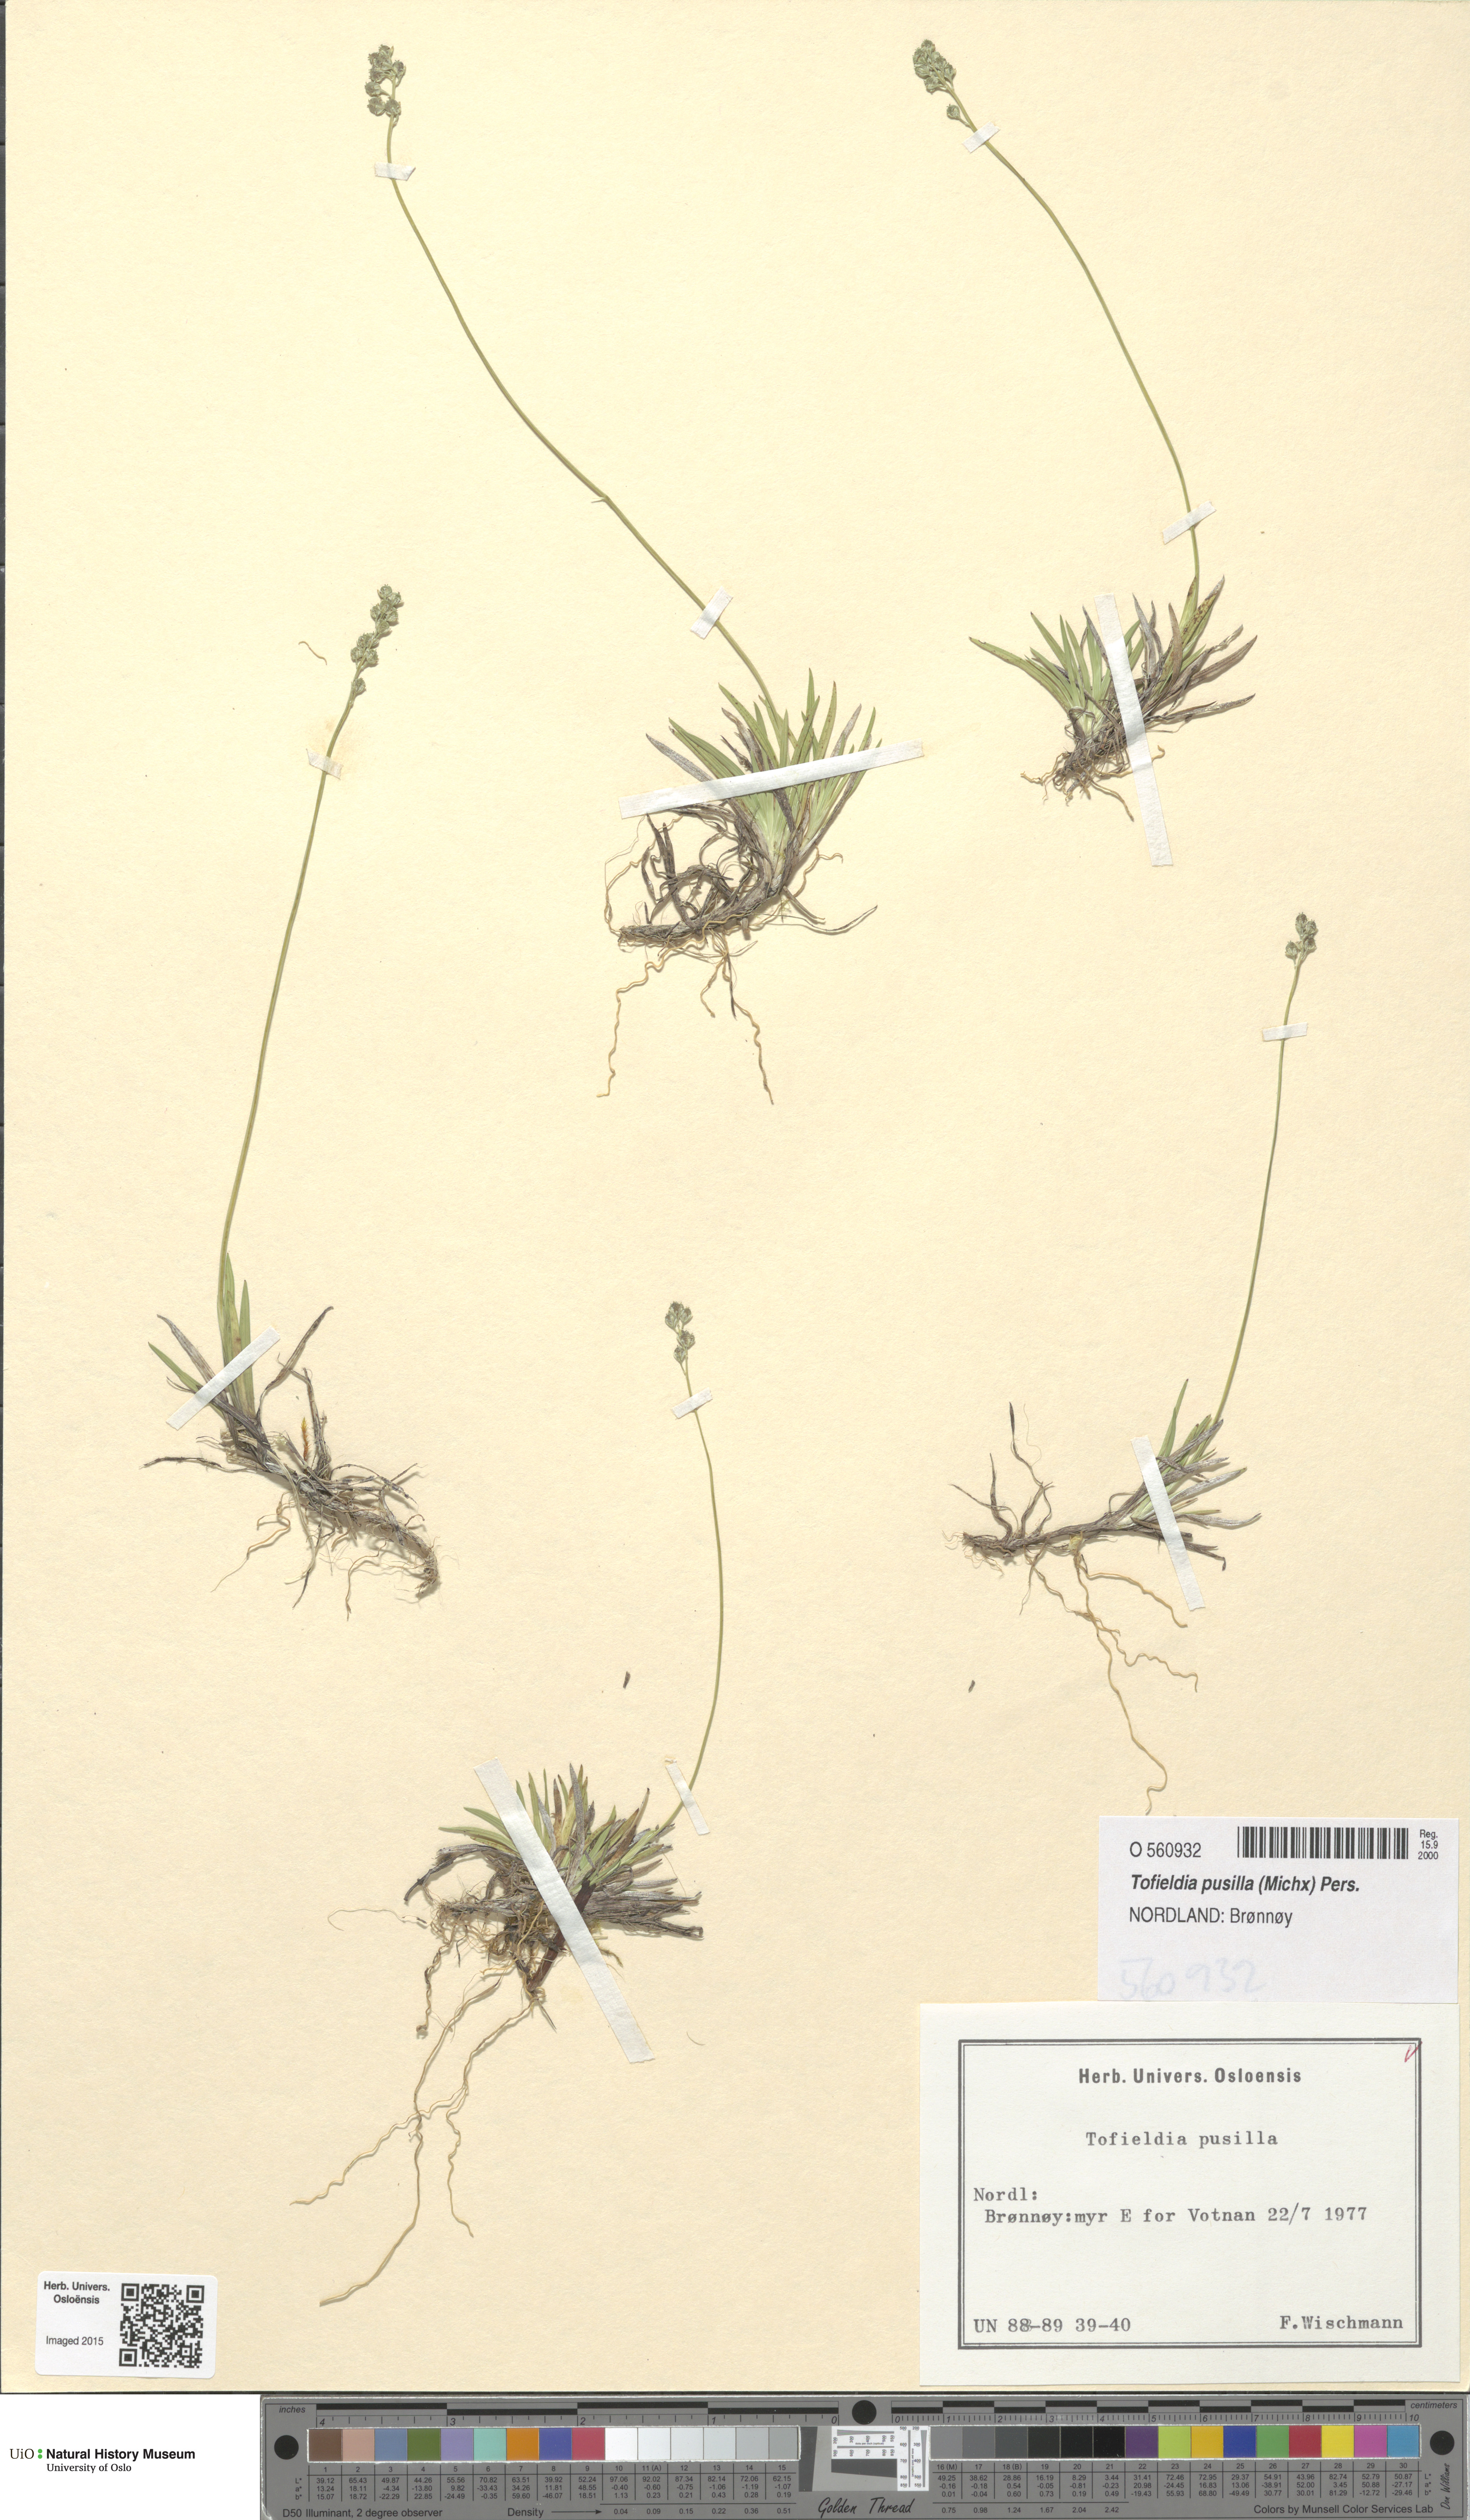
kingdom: Plantae
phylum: Tracheophyta
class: Liliopsida
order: Alismatales
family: Tofieldiaceae
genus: Tofieldia
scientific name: Tofieldia pusilla
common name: Scottish false asphodel
